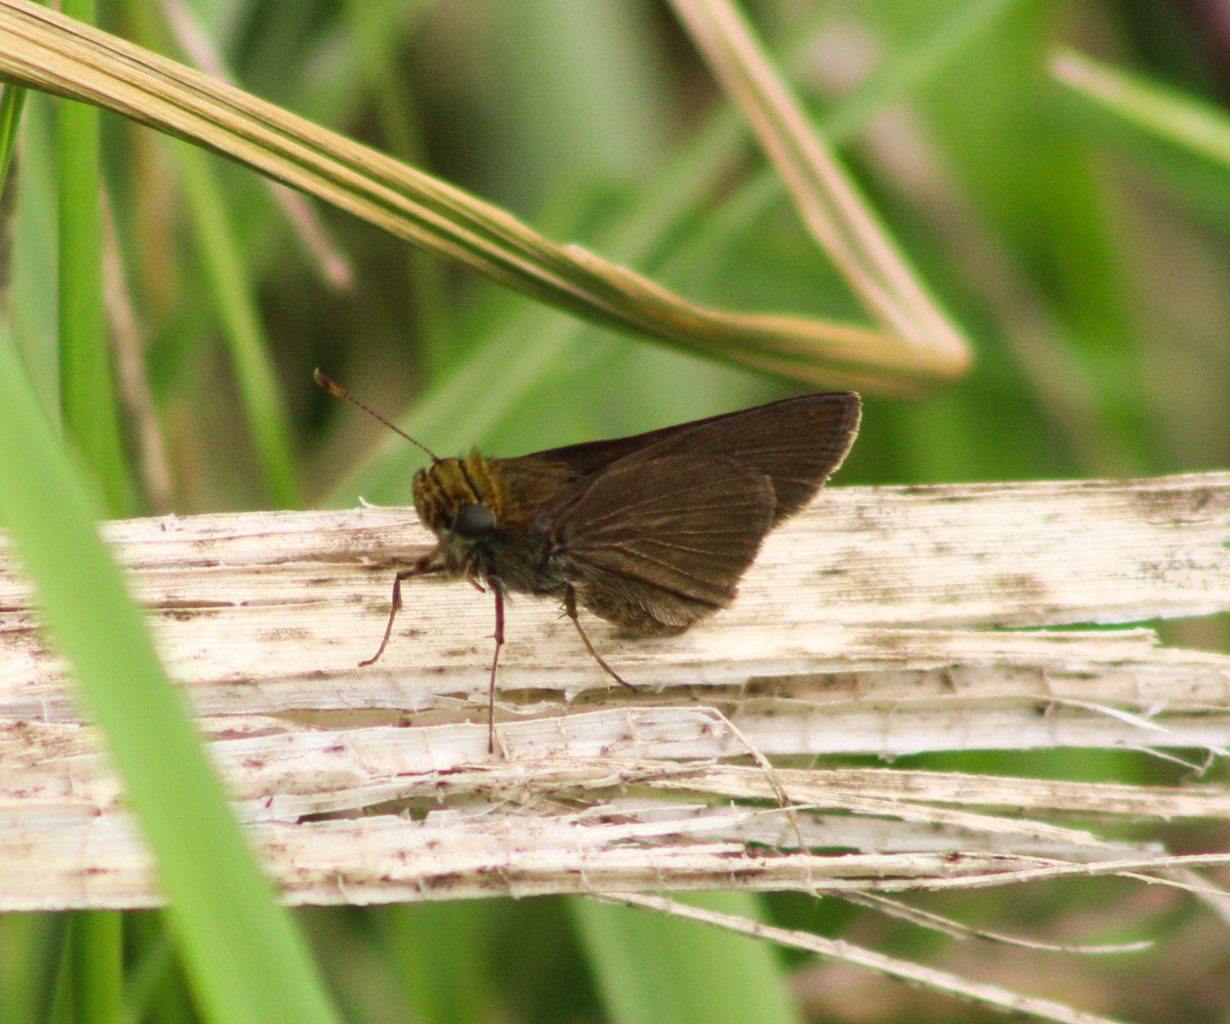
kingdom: Animalia
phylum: Arthropoda
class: Insecta
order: Lepidoptera
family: Hesperiidae
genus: Euphyes
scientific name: Euphyes vestris
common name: Dun Skipper
